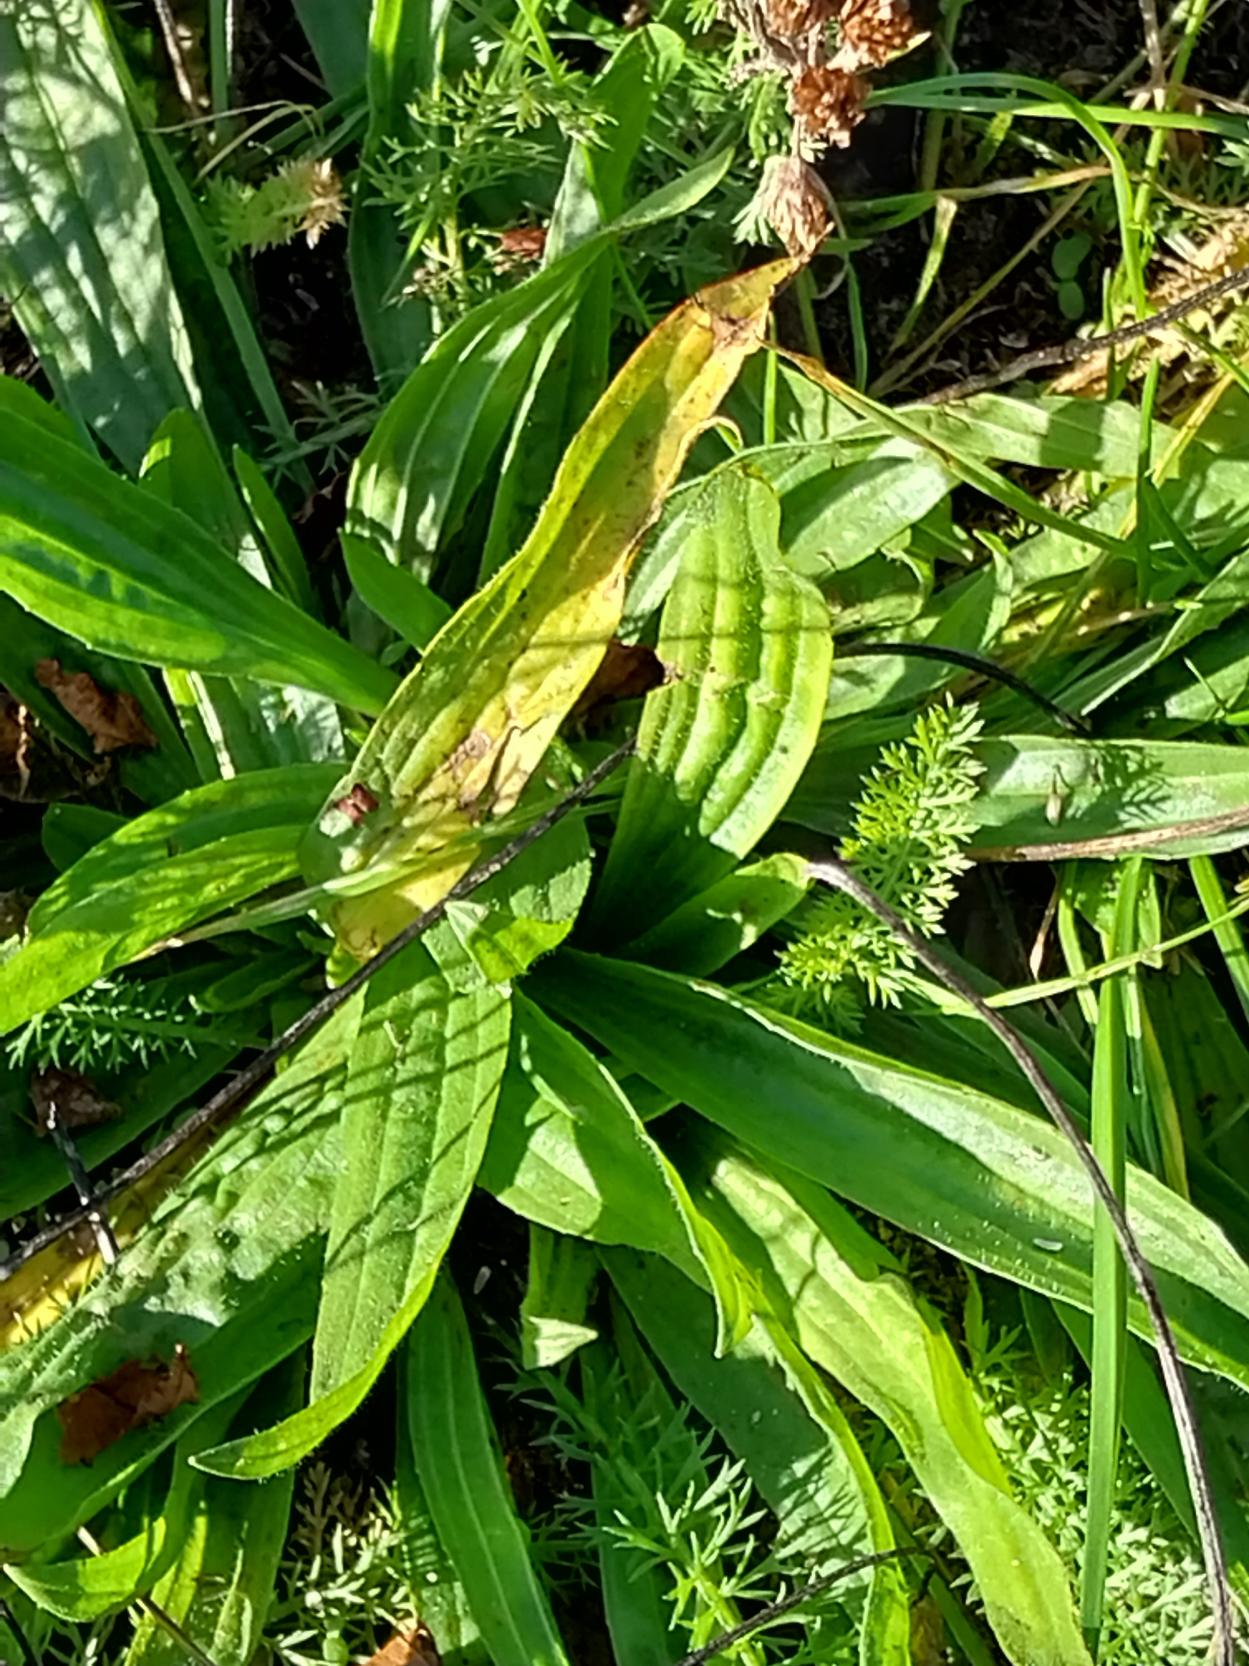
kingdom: Plantae
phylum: Tracheophyta
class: Magnoliopsida
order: Lamiales
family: Plantaginaceae
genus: Plantago
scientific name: Plantago lanceolata
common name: Lancet-vejbred
